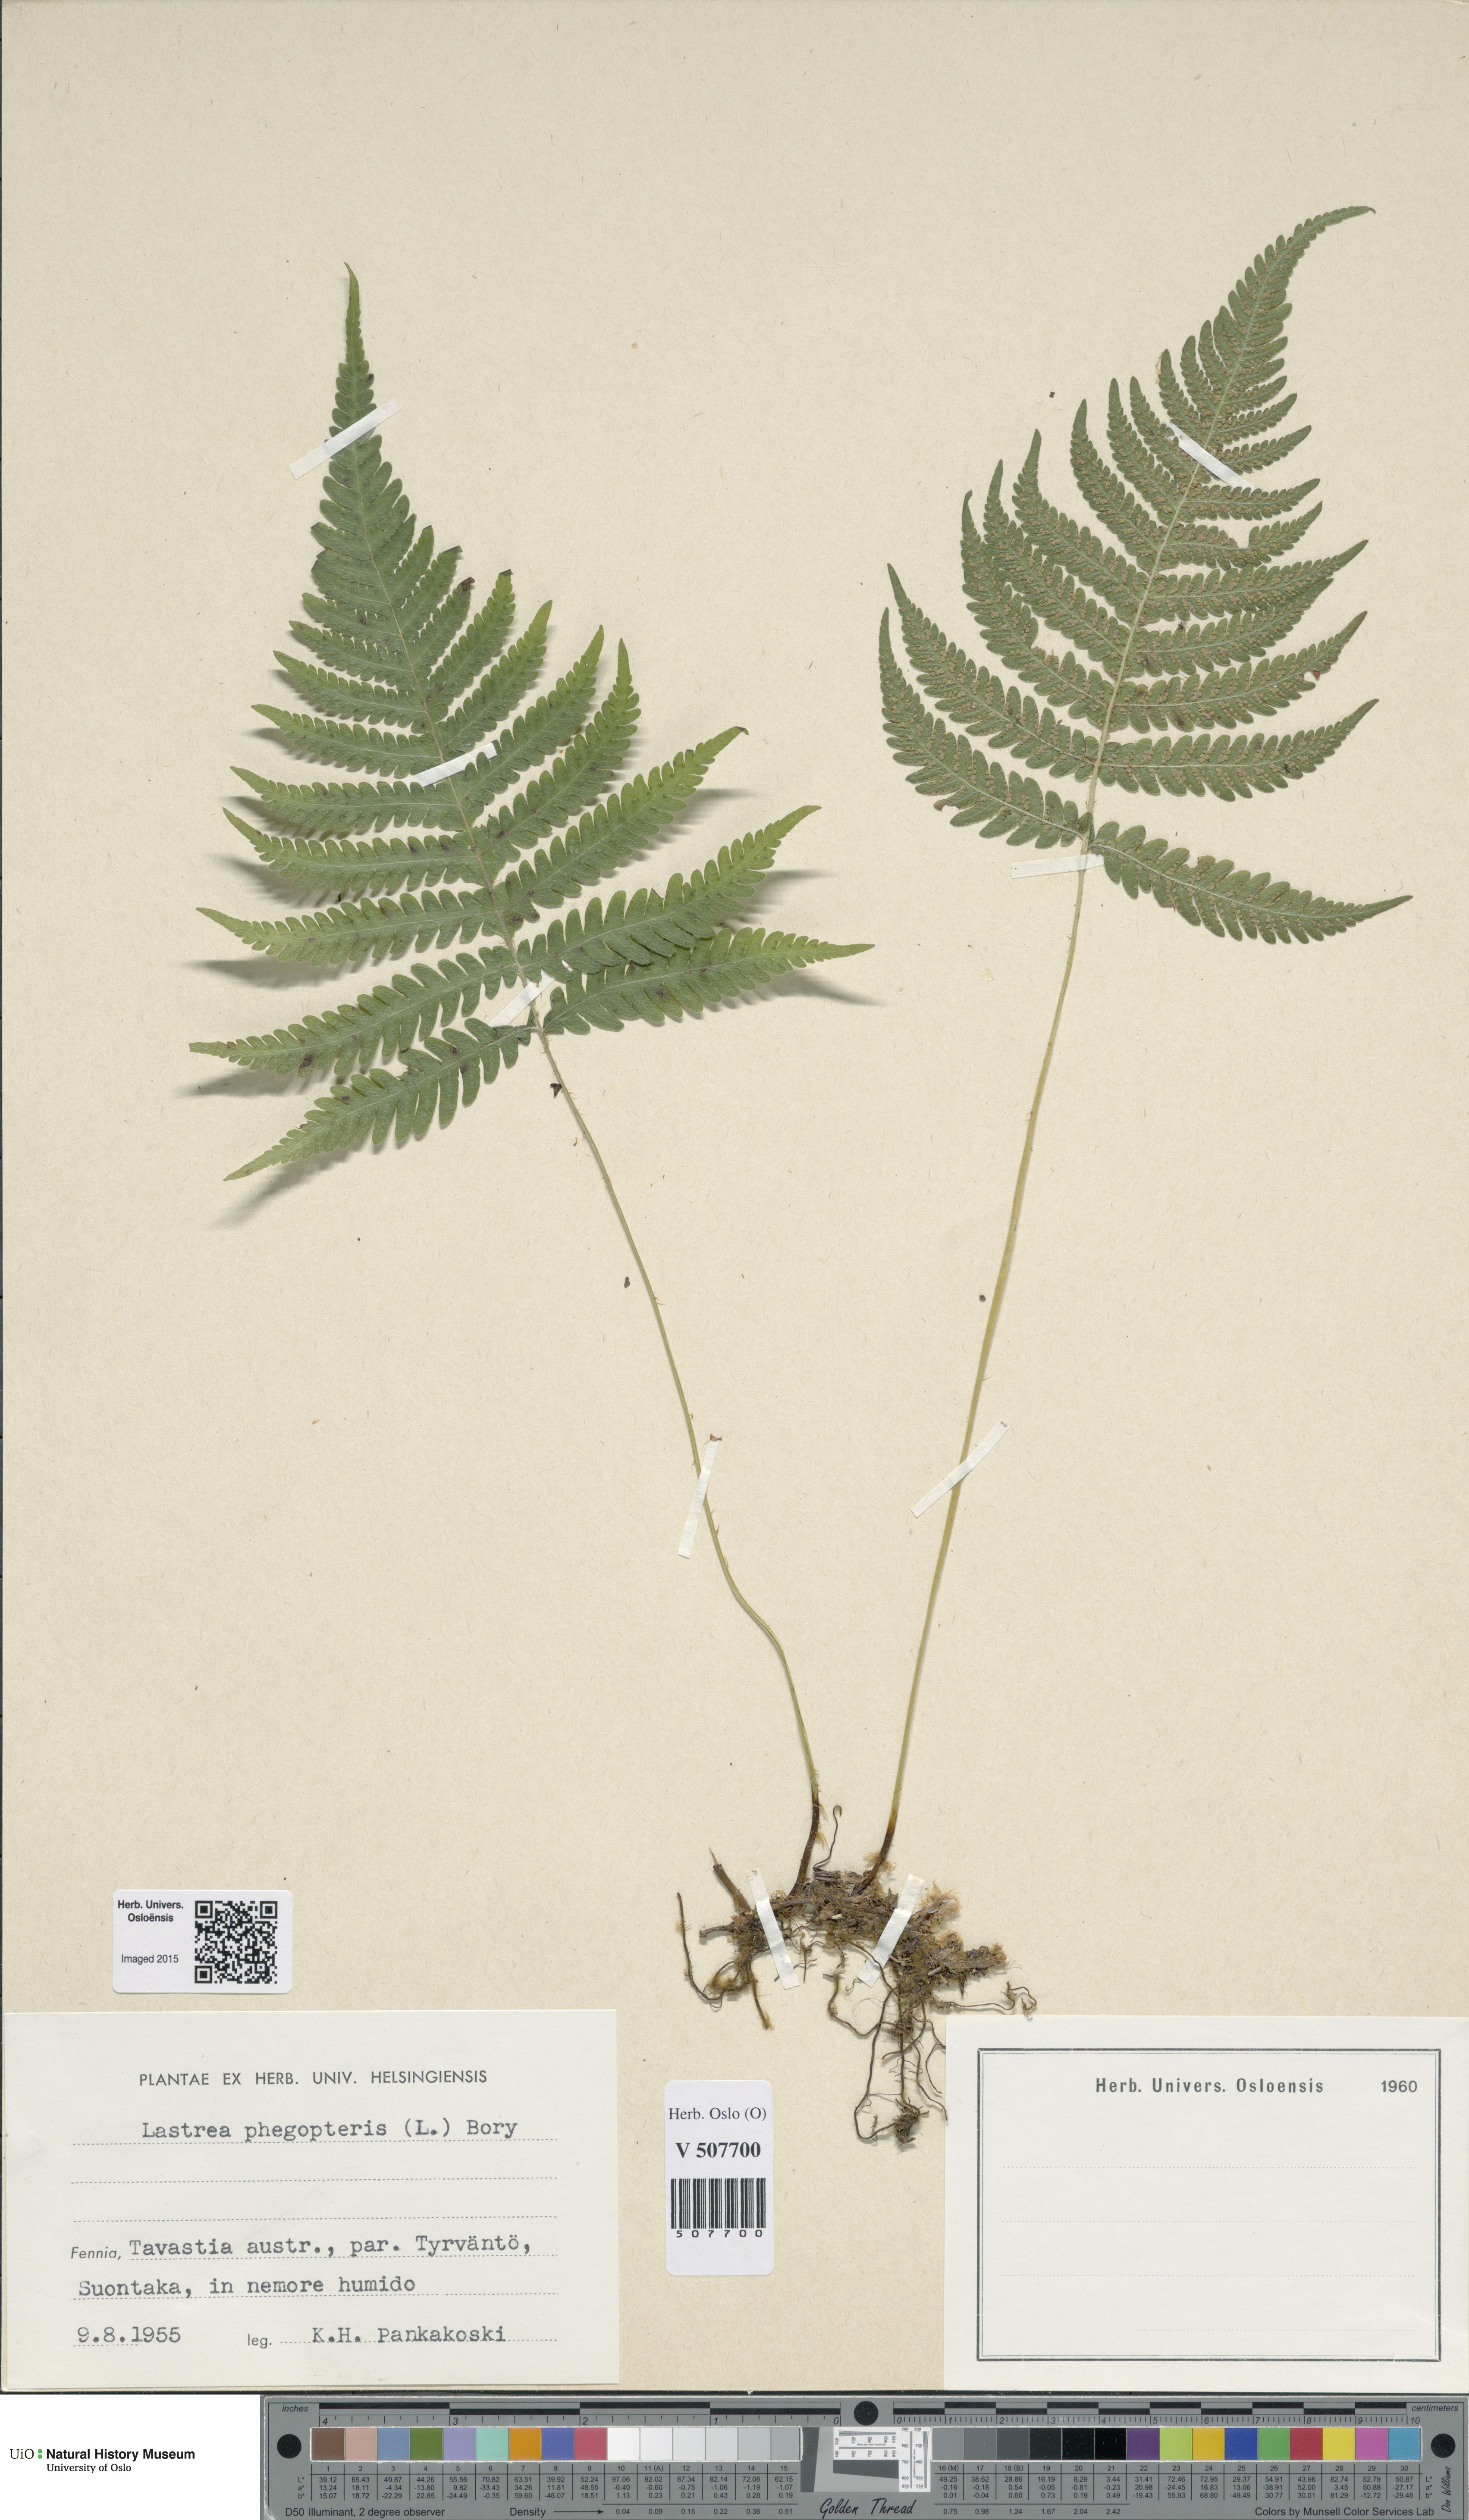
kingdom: Plantae
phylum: Tracheophyta
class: Polypodiopsida
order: Polypodiales
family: Thelypteridaceae
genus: Phegopteris
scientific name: Phegopteris connectilis
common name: Beech fern
